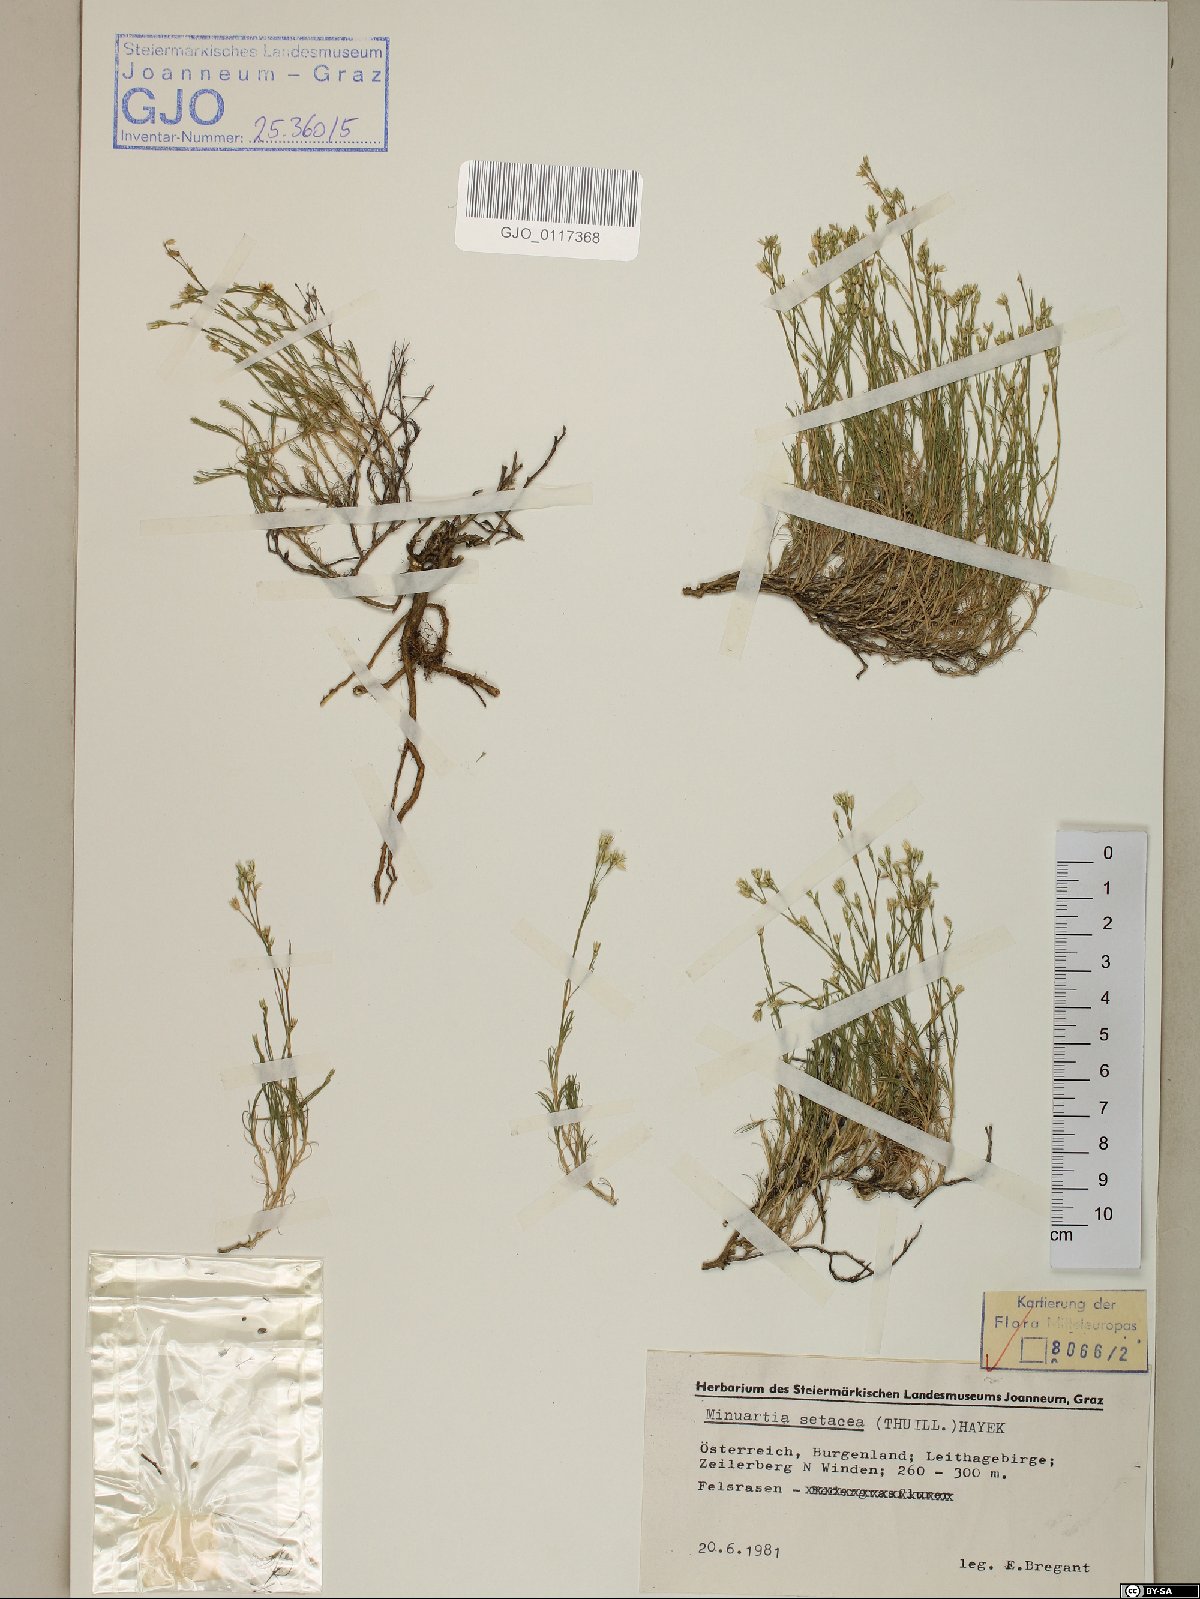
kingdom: Plantae
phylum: Tracheophyta
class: Magnoliopsida
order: Caryophyllales
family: Caryophyllaceae
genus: Minuartia
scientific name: Minuartia setacea
